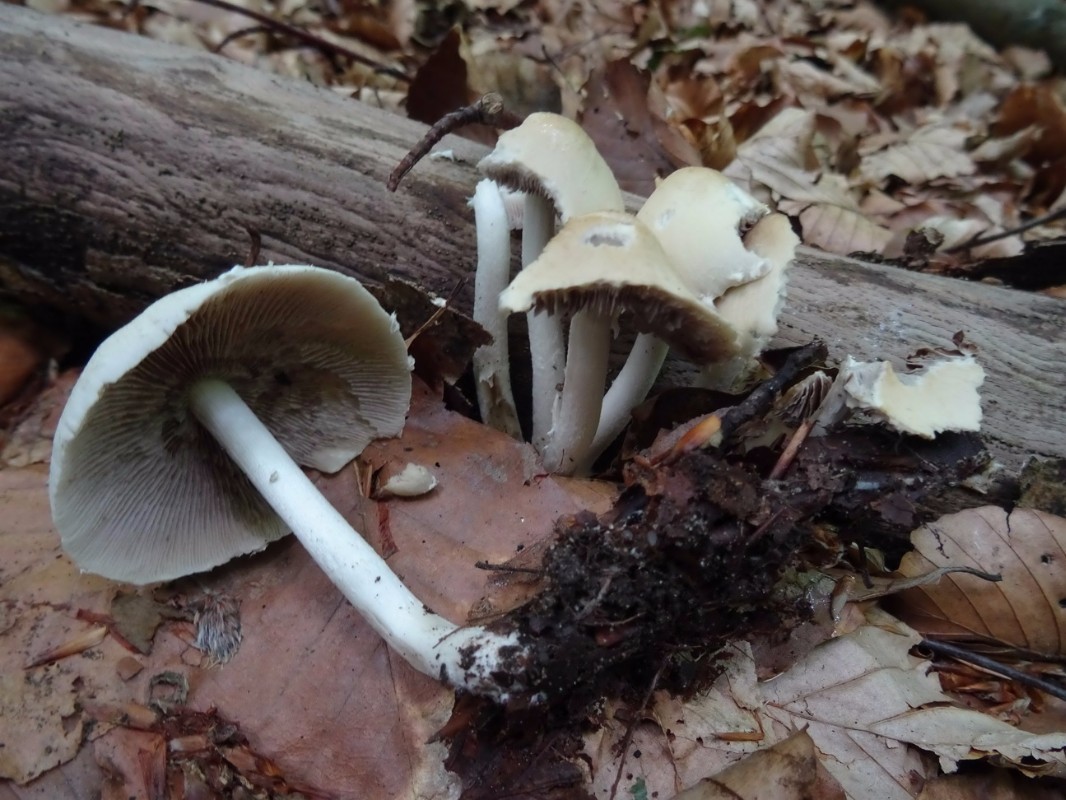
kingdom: Fungi
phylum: Basidiomycota
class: Agaricomycetes
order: Agaricales
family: Psathyrellaceae
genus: Candolleomyces
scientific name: Candolleomyces candolleanus
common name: Candolles mørkhat
